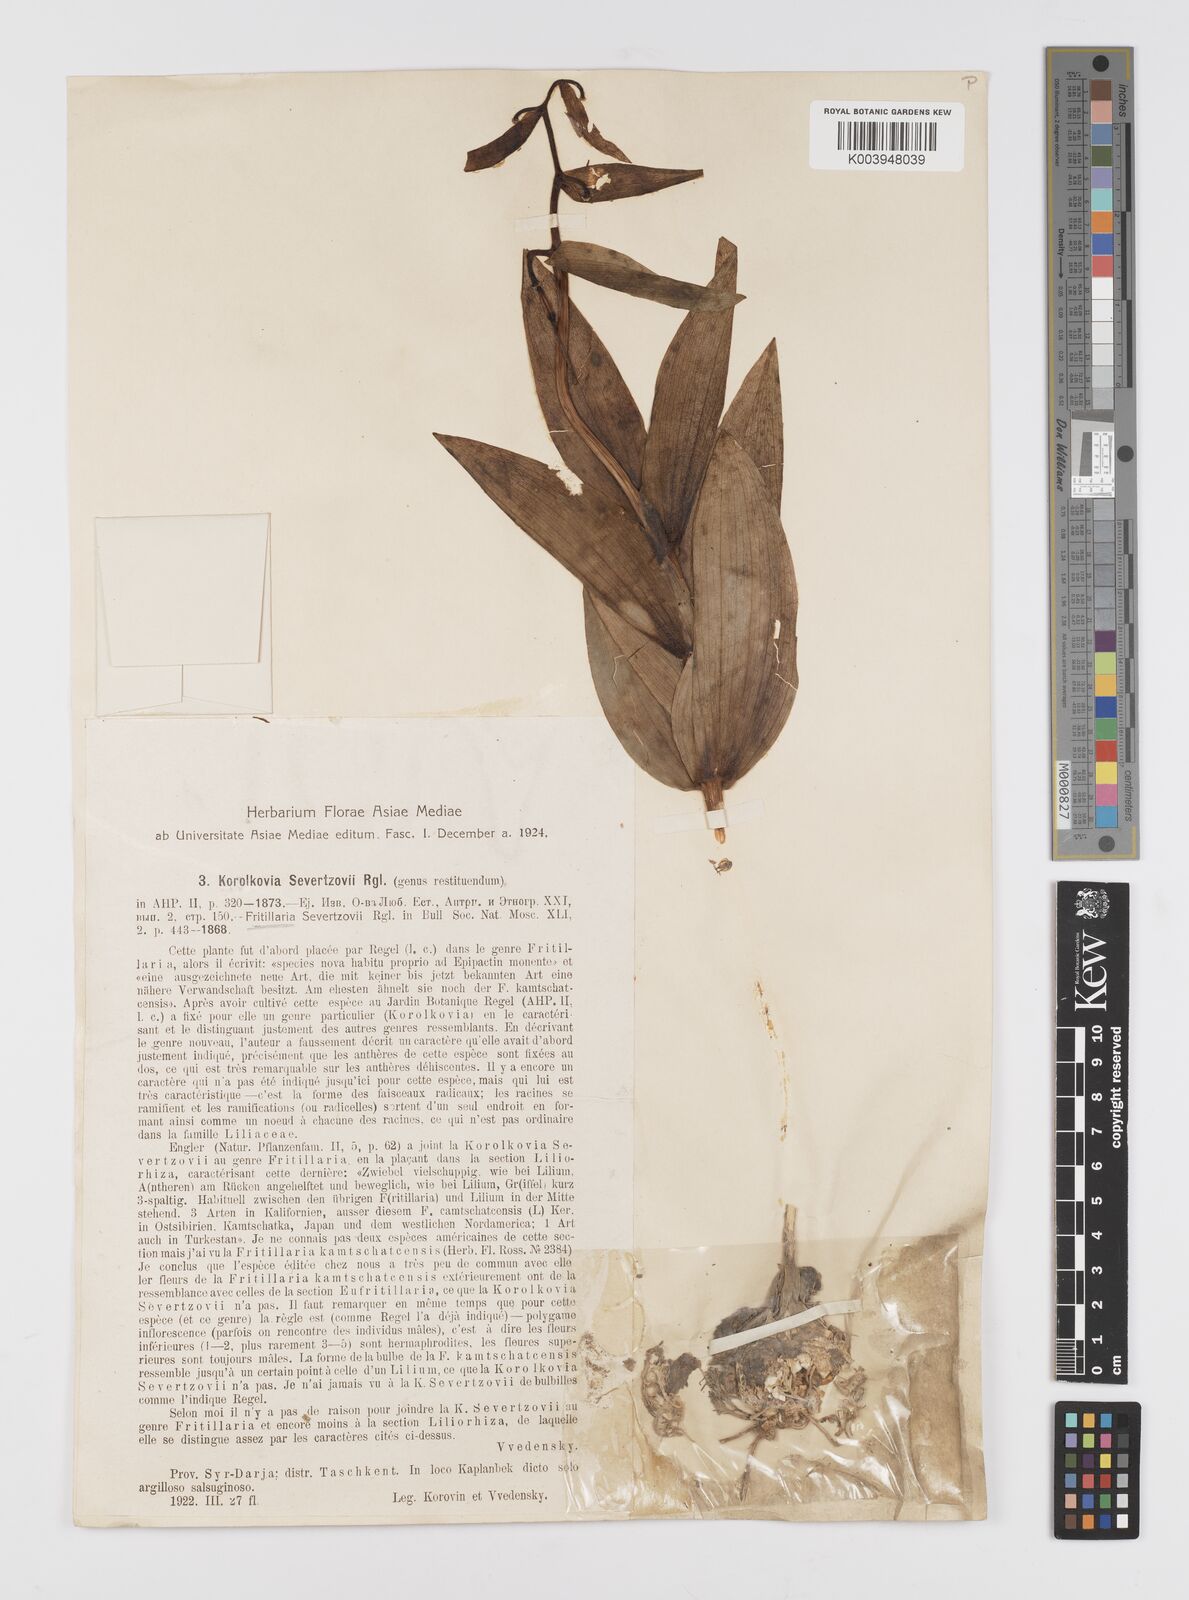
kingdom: Plantae
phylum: Tracheophyta
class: Liliopsida
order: Liliales
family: Liliaceae
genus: Fritillaria
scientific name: Fritillaria
